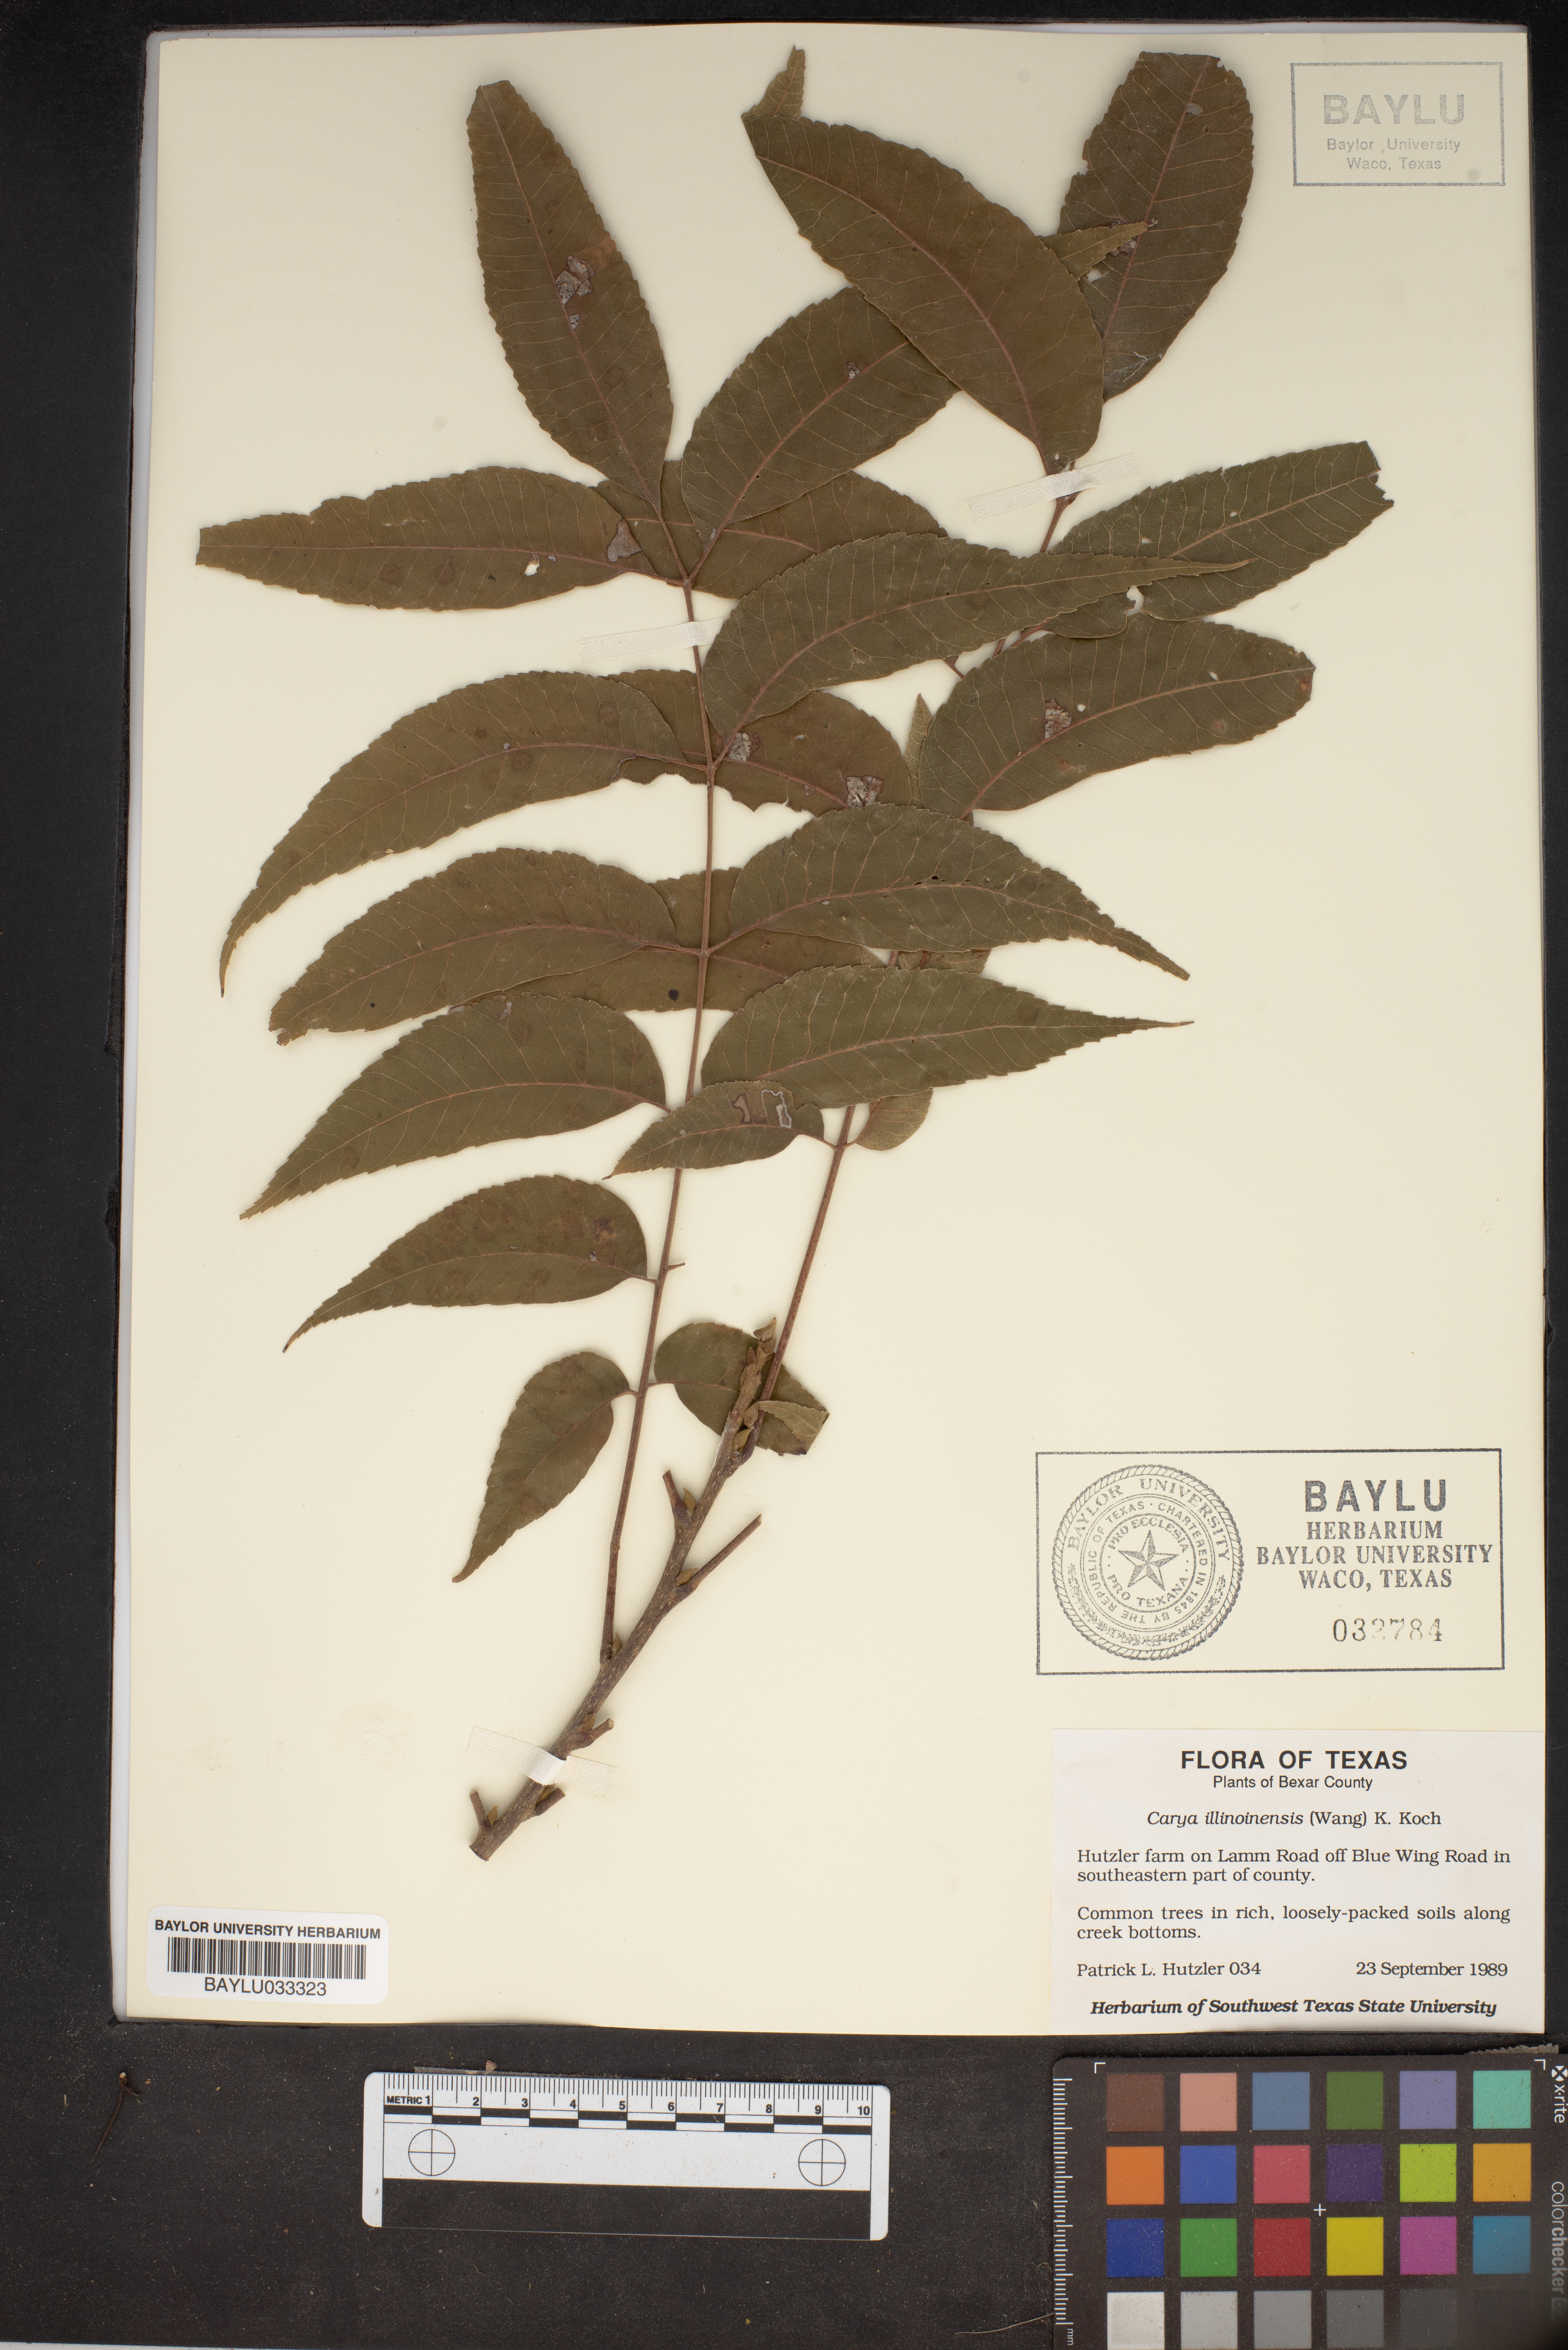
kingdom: Plantae
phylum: Tracheophyta
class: Magnoliopsida
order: Fagales
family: Juglandaceae
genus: Carya
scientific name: Carya illinoinensis
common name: Pecan
